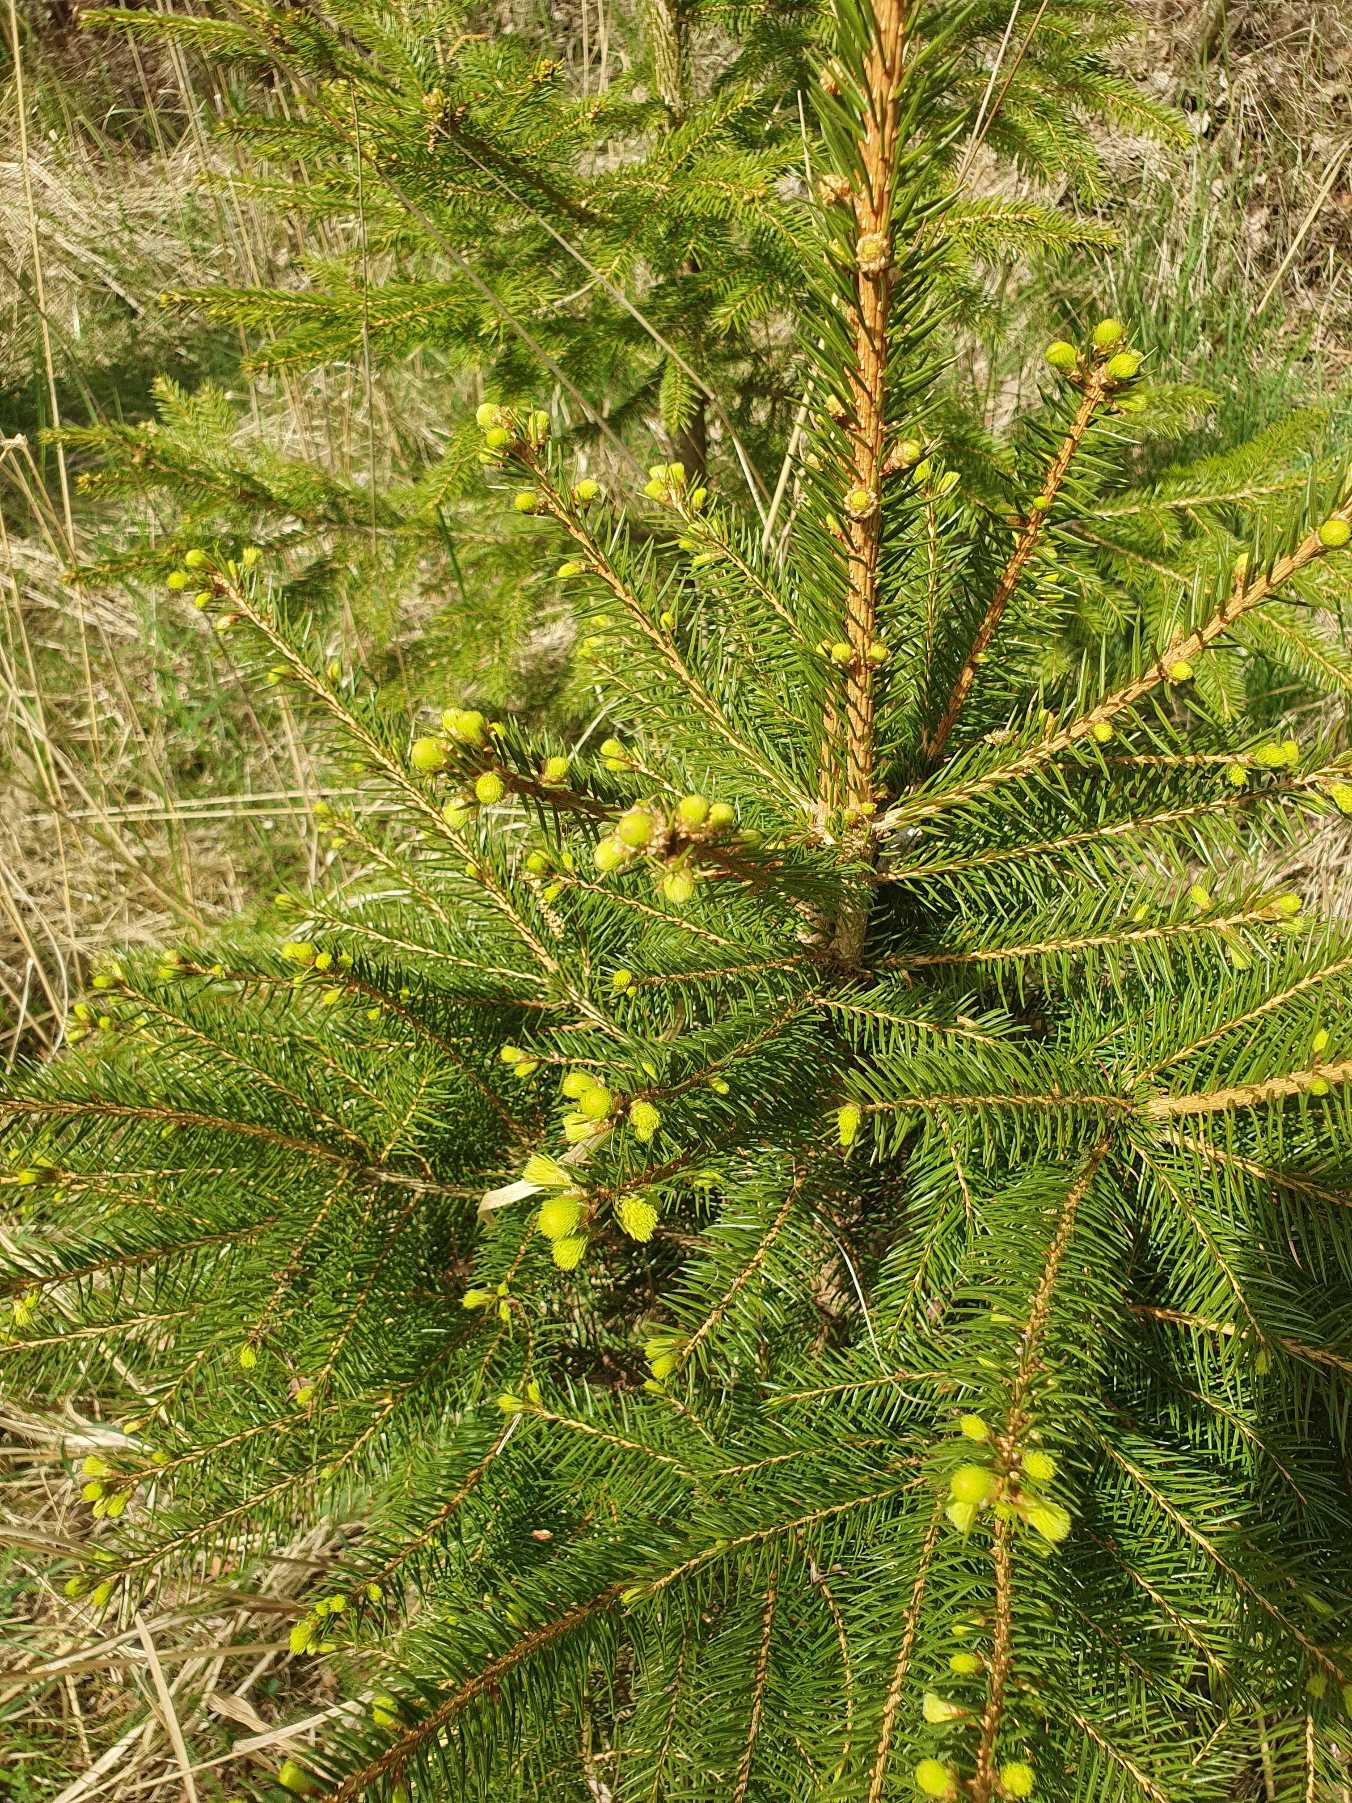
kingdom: Plantae
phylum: Tracheophyta
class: Pinopsida
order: Pinales
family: Pinaceae
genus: Picea
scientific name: Picea abies
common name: Rød-gran
